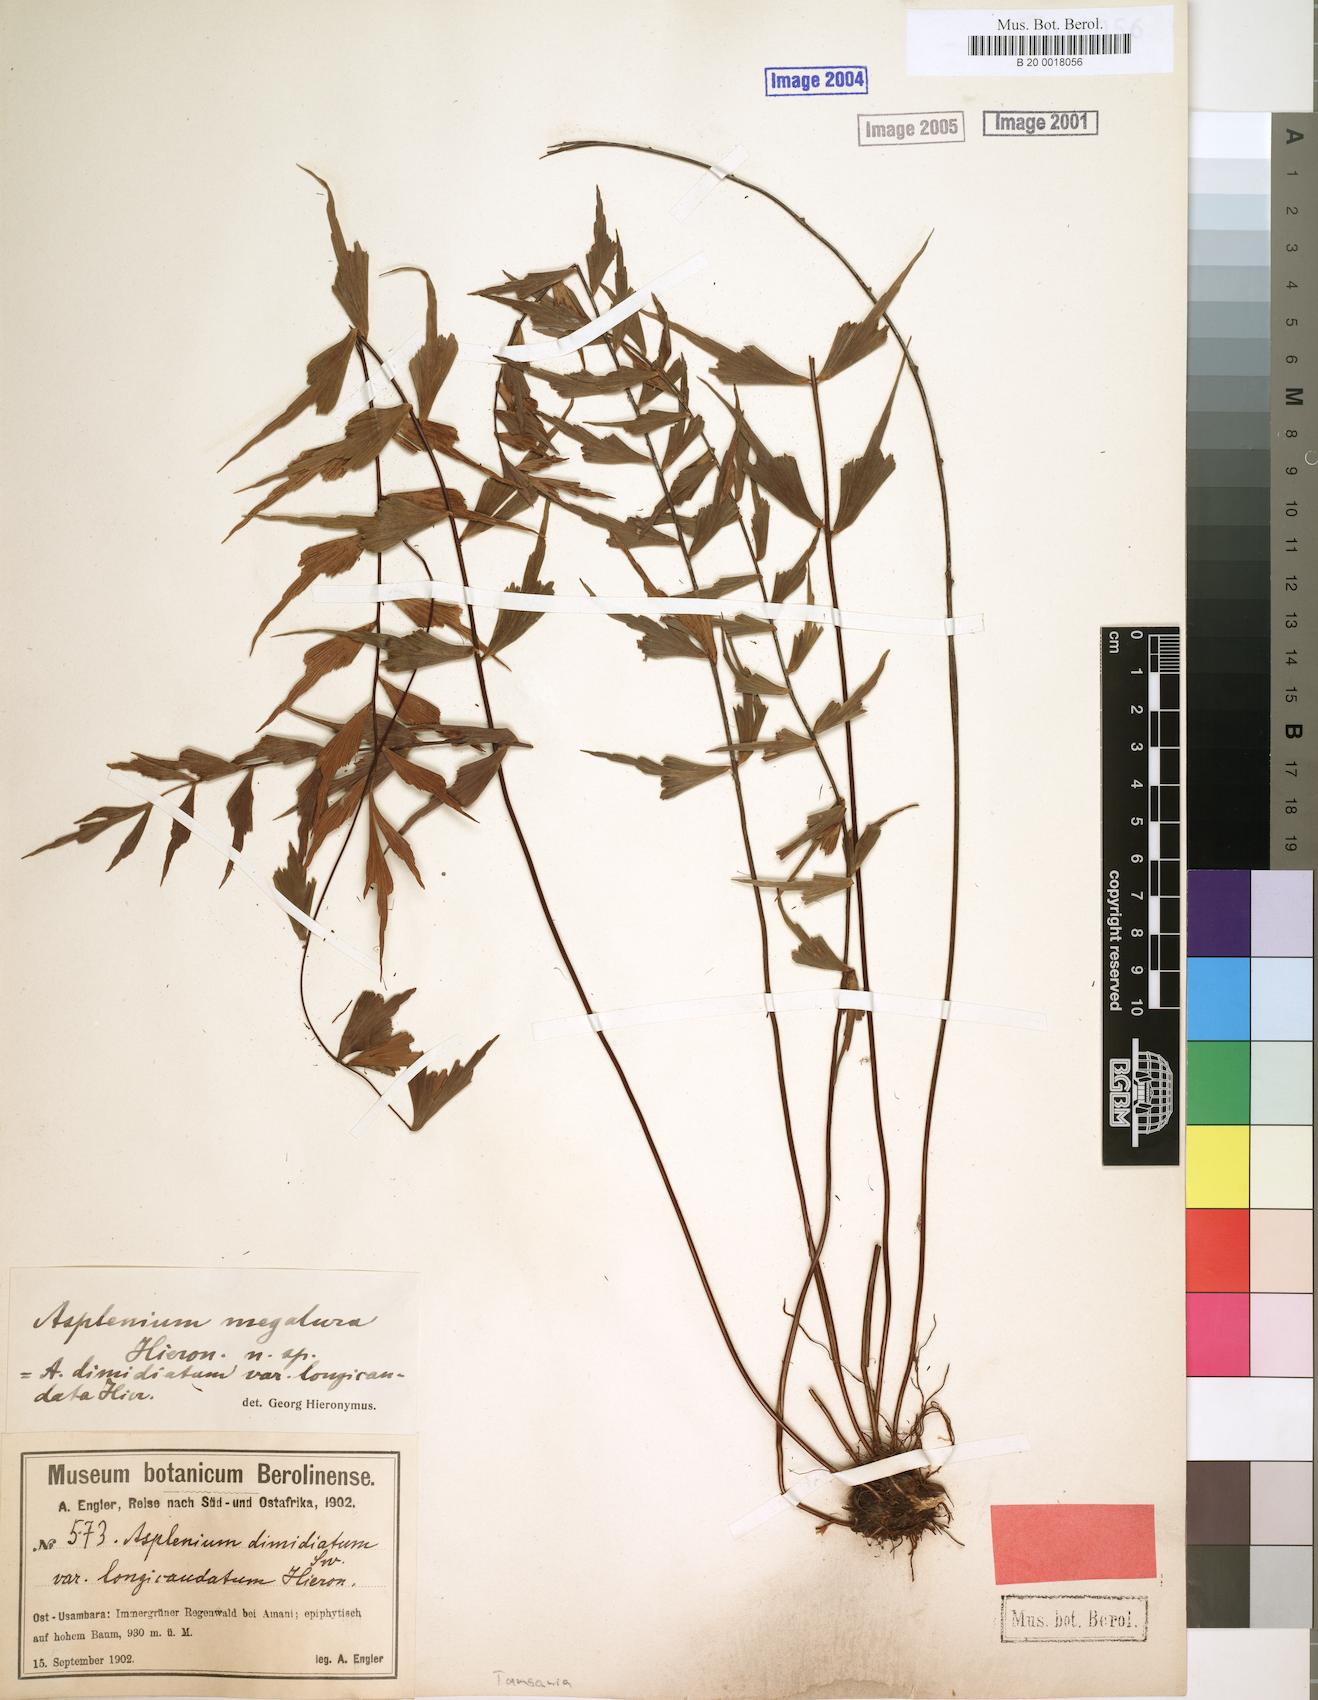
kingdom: Plantae
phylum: Tracheophyta
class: Polypodiopsida
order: Polypodiales
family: Aspleniaceae
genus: Asplenium
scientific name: Asplenium megalura
